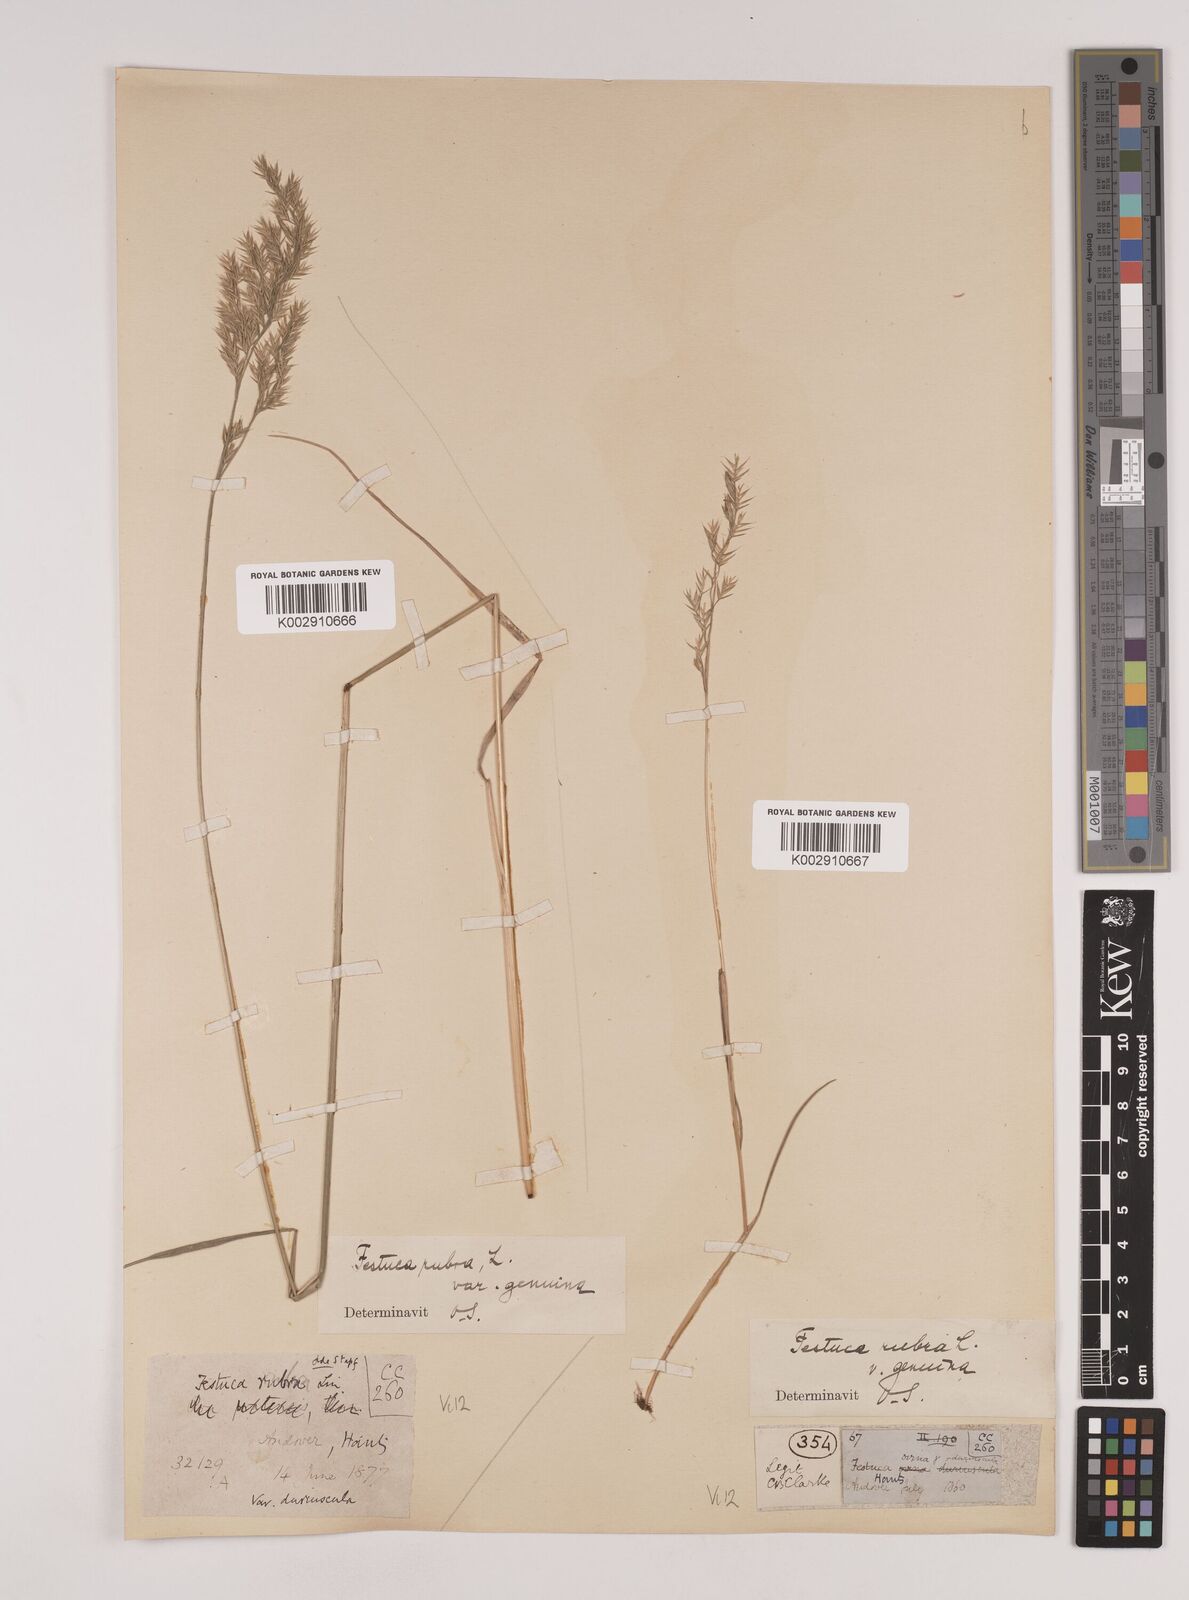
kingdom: Plantae
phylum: Tracheophyta
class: Liliopsida
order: Poales
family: Poaceae
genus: Festuca
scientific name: Festuca rubra
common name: Red fescue
